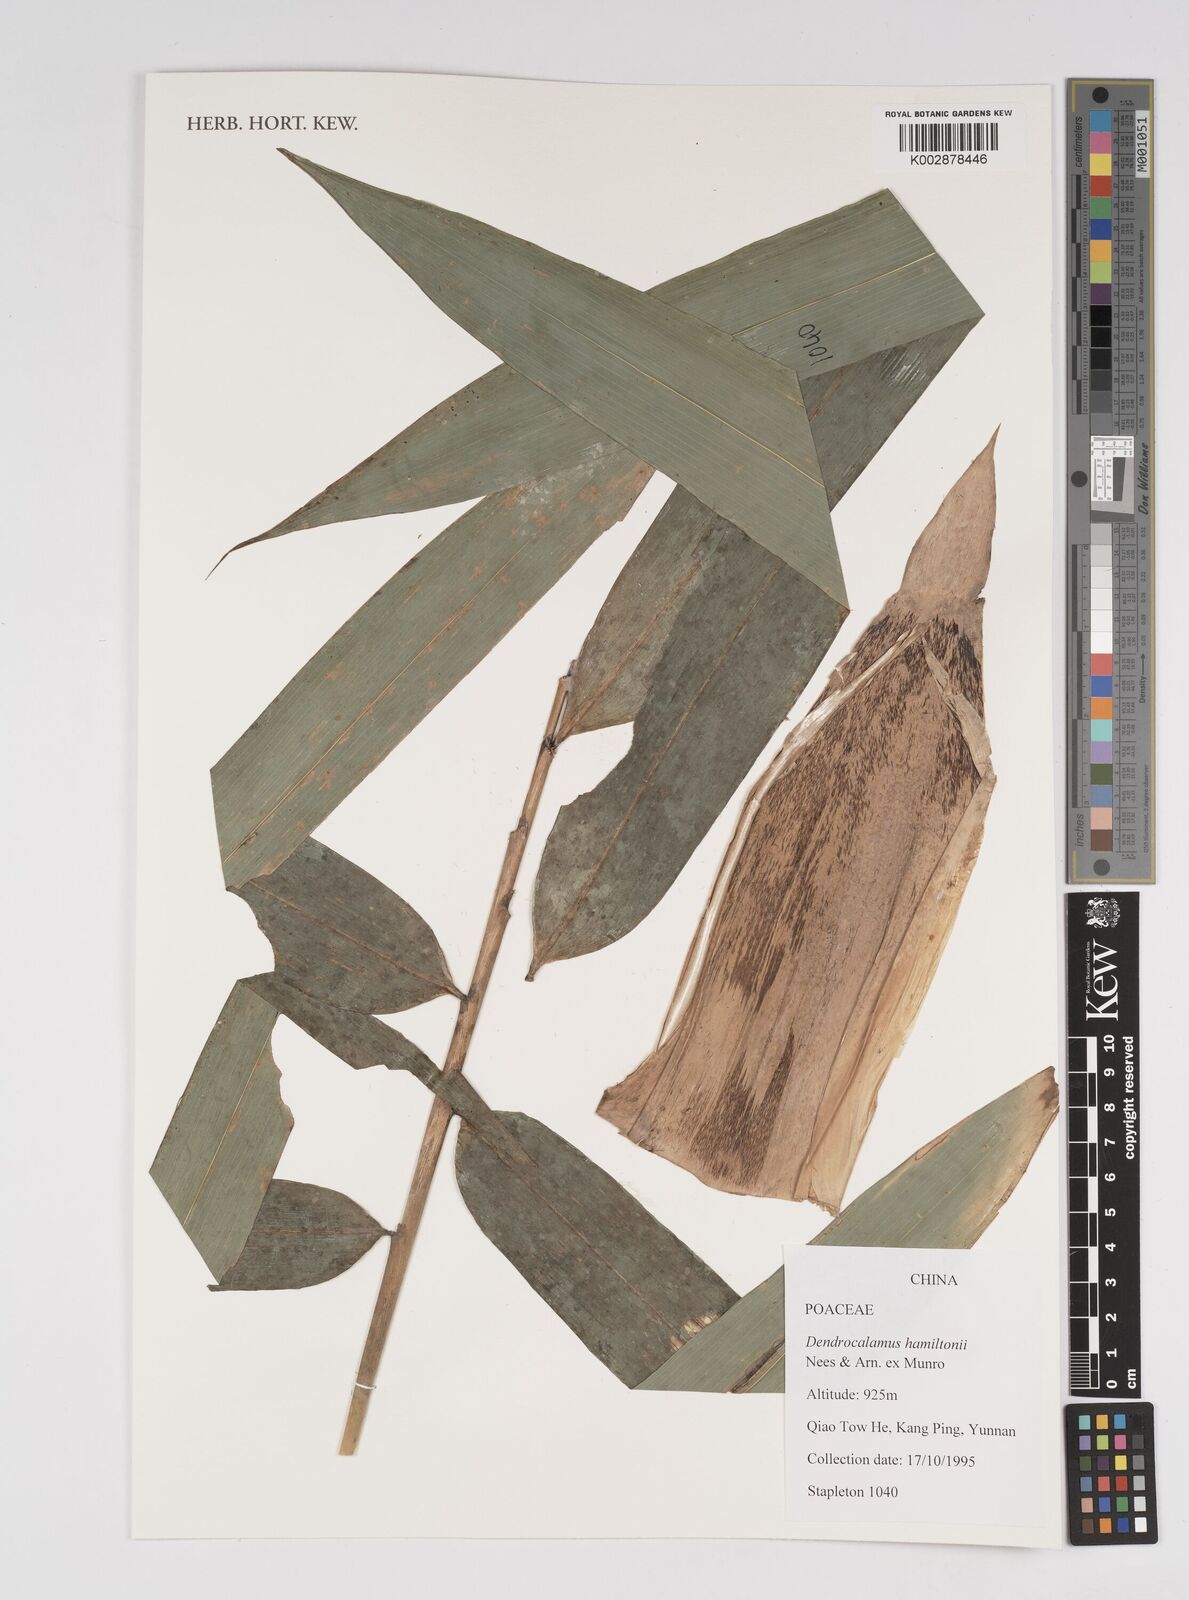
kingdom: Plantae
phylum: Tracheophyta
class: Liliopsida
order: Poales
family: Poaceae
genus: Dendrocalamus
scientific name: Dendrocalamus hamiltonii
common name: Tama bamboo
